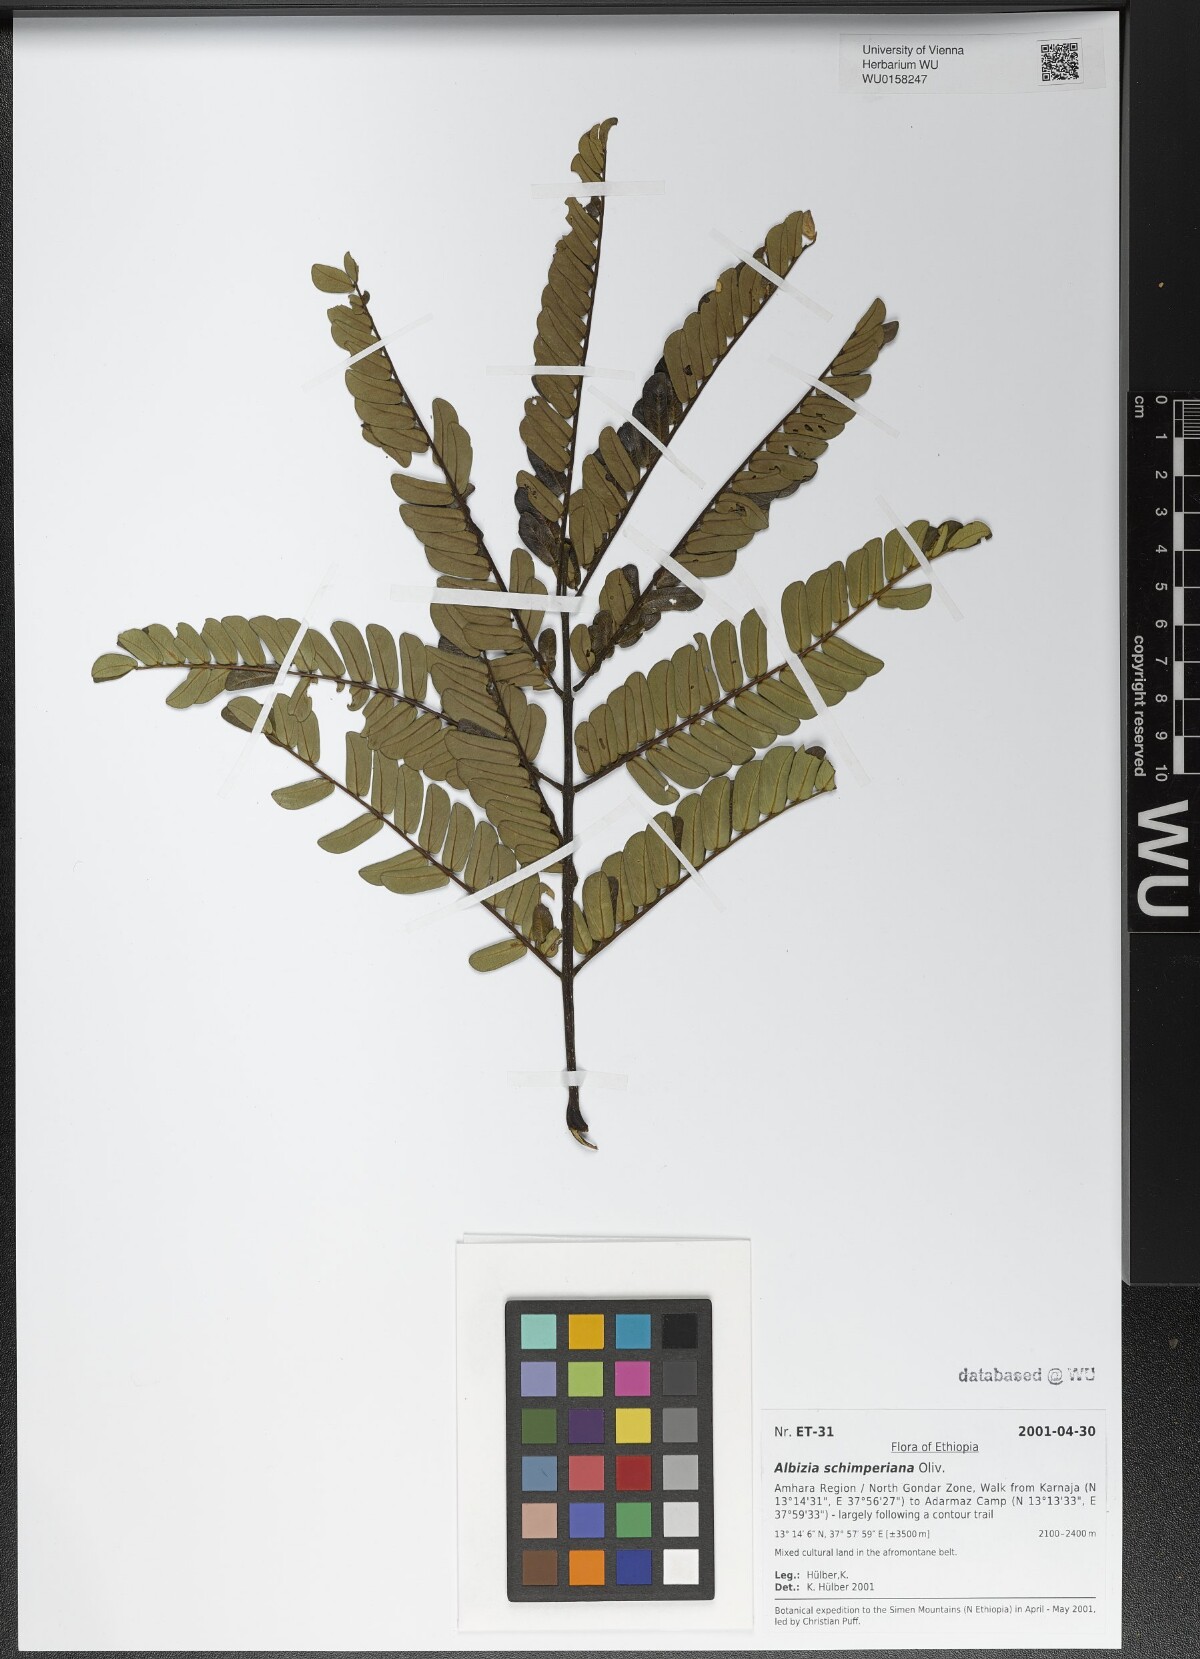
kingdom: Plantae
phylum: Tracheophyta
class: Magnoliopsida
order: Fabales
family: Fabaceae
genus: Albizia
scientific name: Albizia schimperiana
